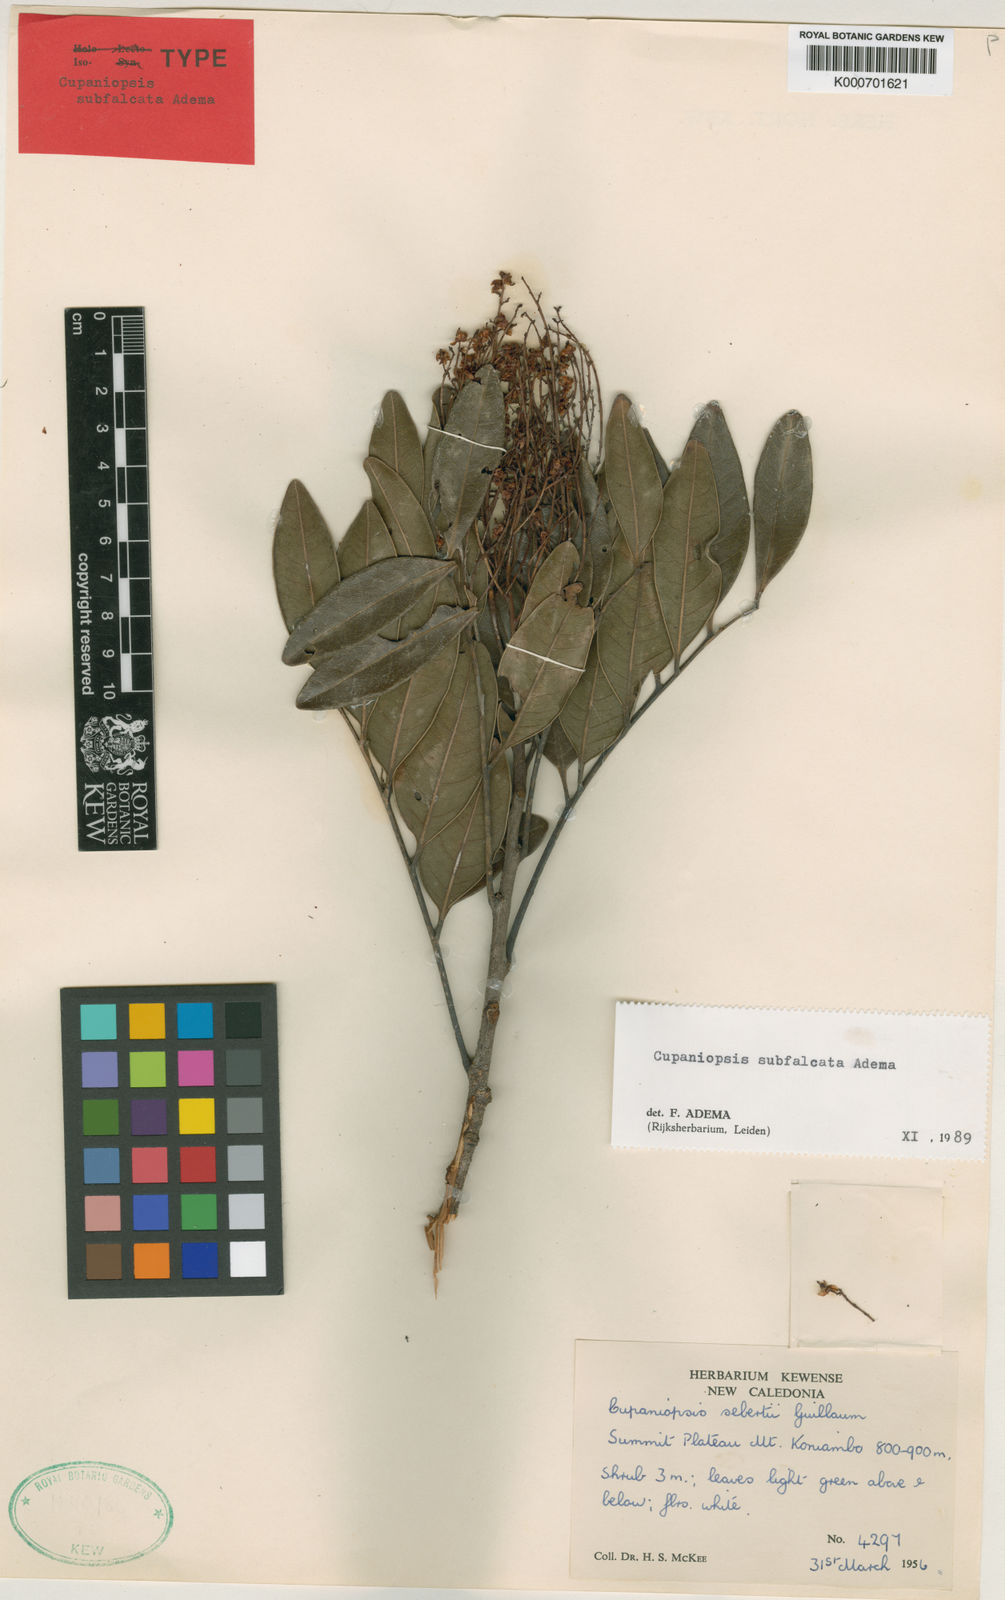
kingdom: Plantae
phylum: Tracheophyta
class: Magnoliopsida
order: Sapindales
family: Sapindaceae
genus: Lepidocupania
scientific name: Lepidocupania subfalcata
